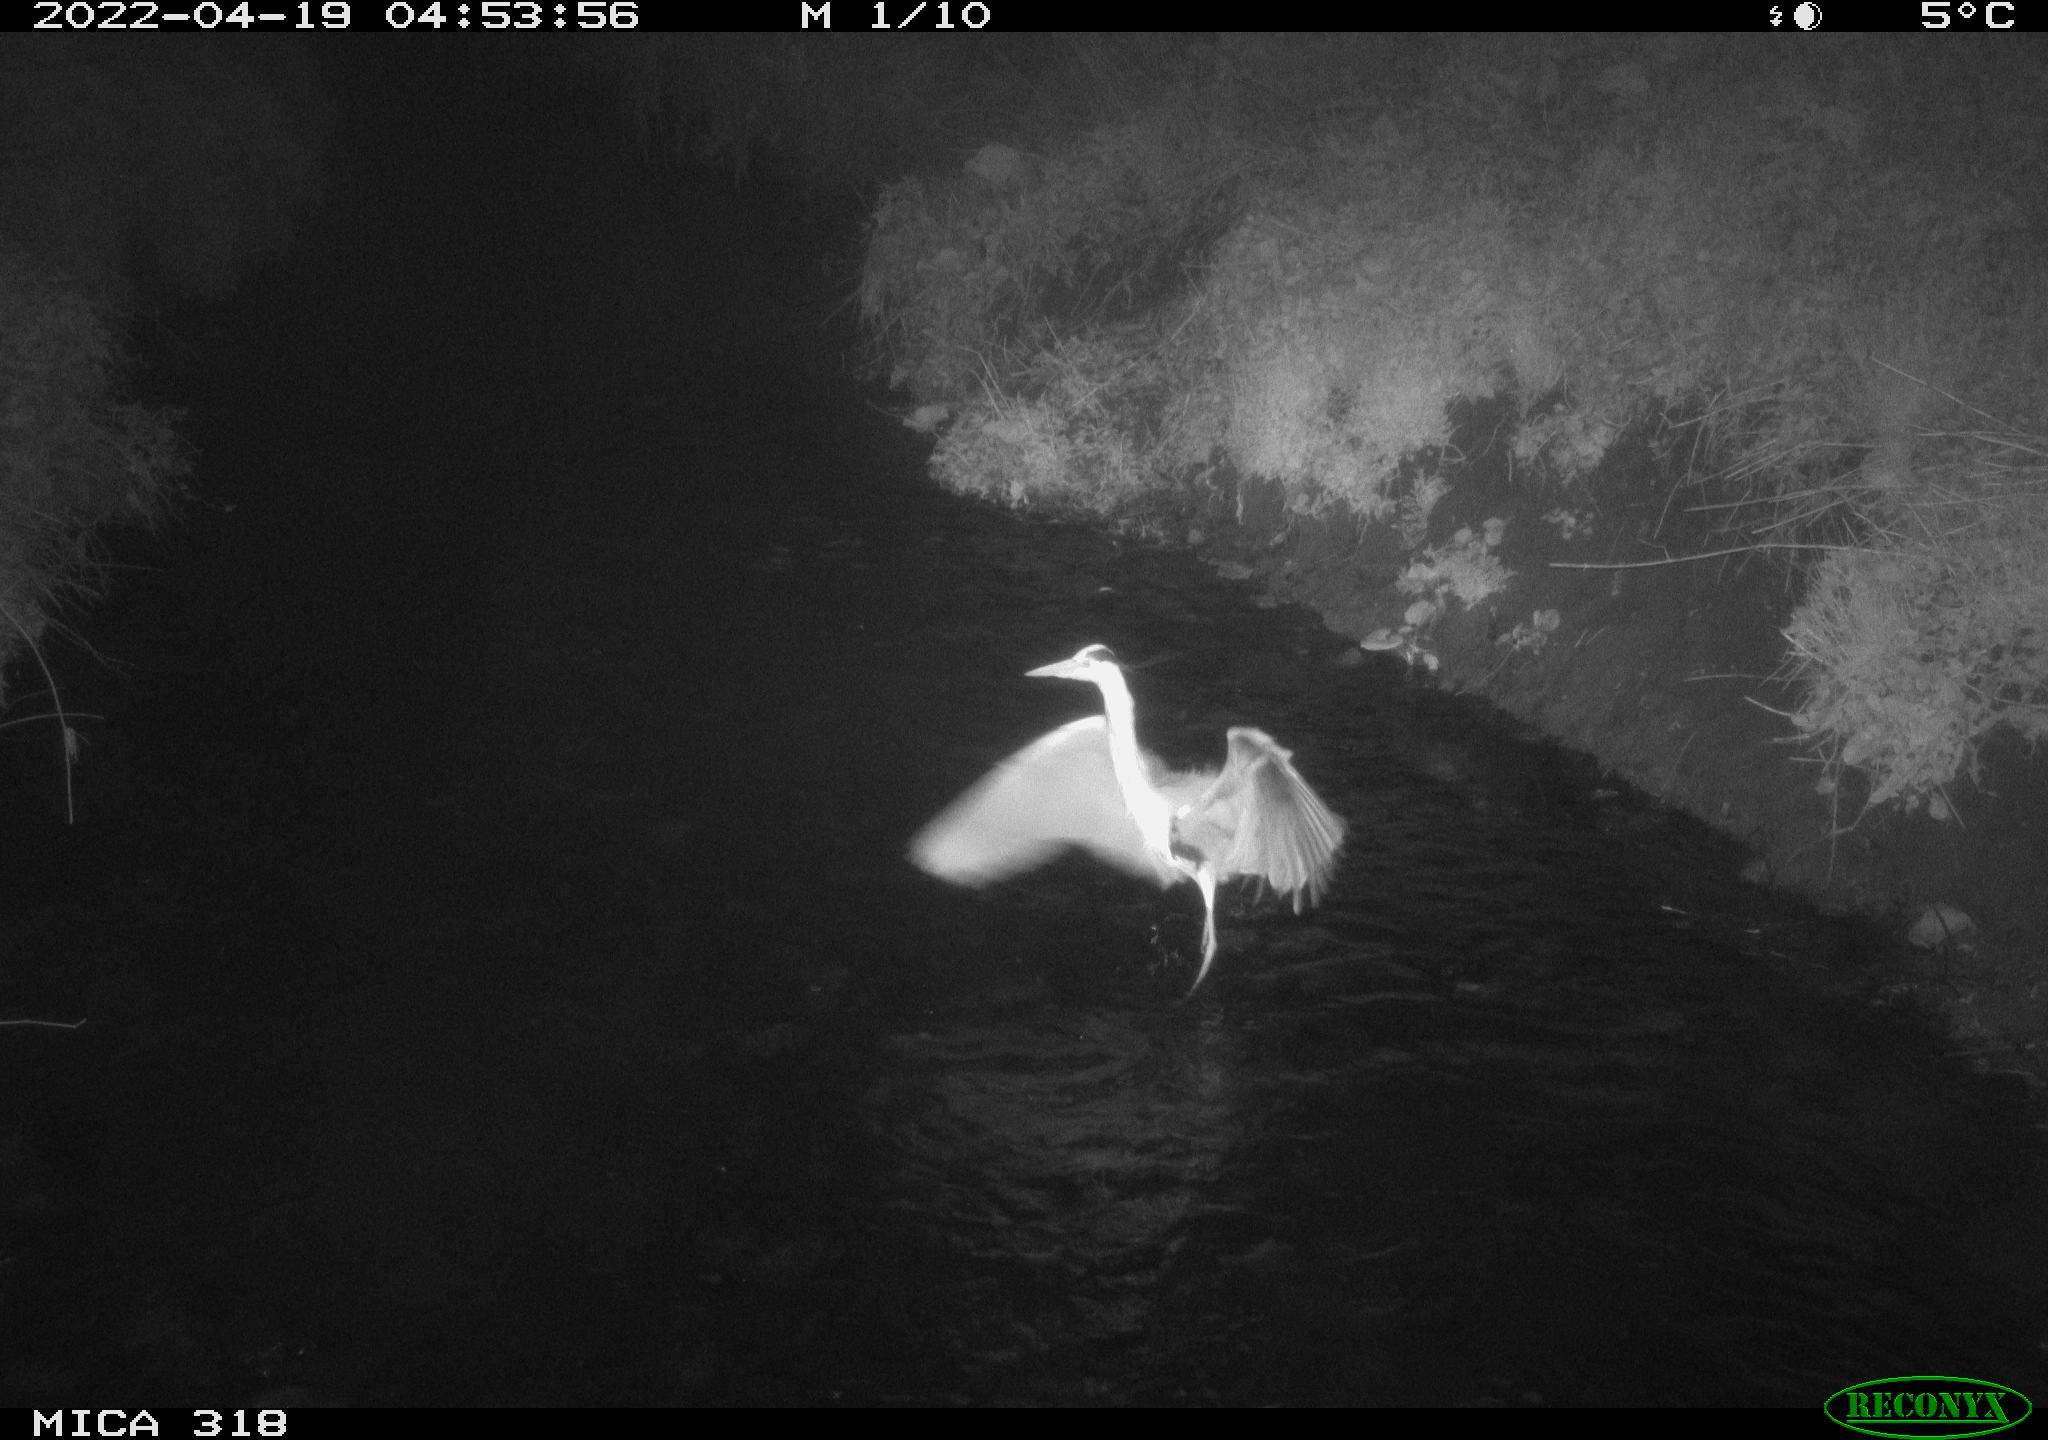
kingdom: Animalia
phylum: Chordata
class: Aves
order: Pelecaniformes
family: Ardeidae
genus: Ardea
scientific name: Ardea
